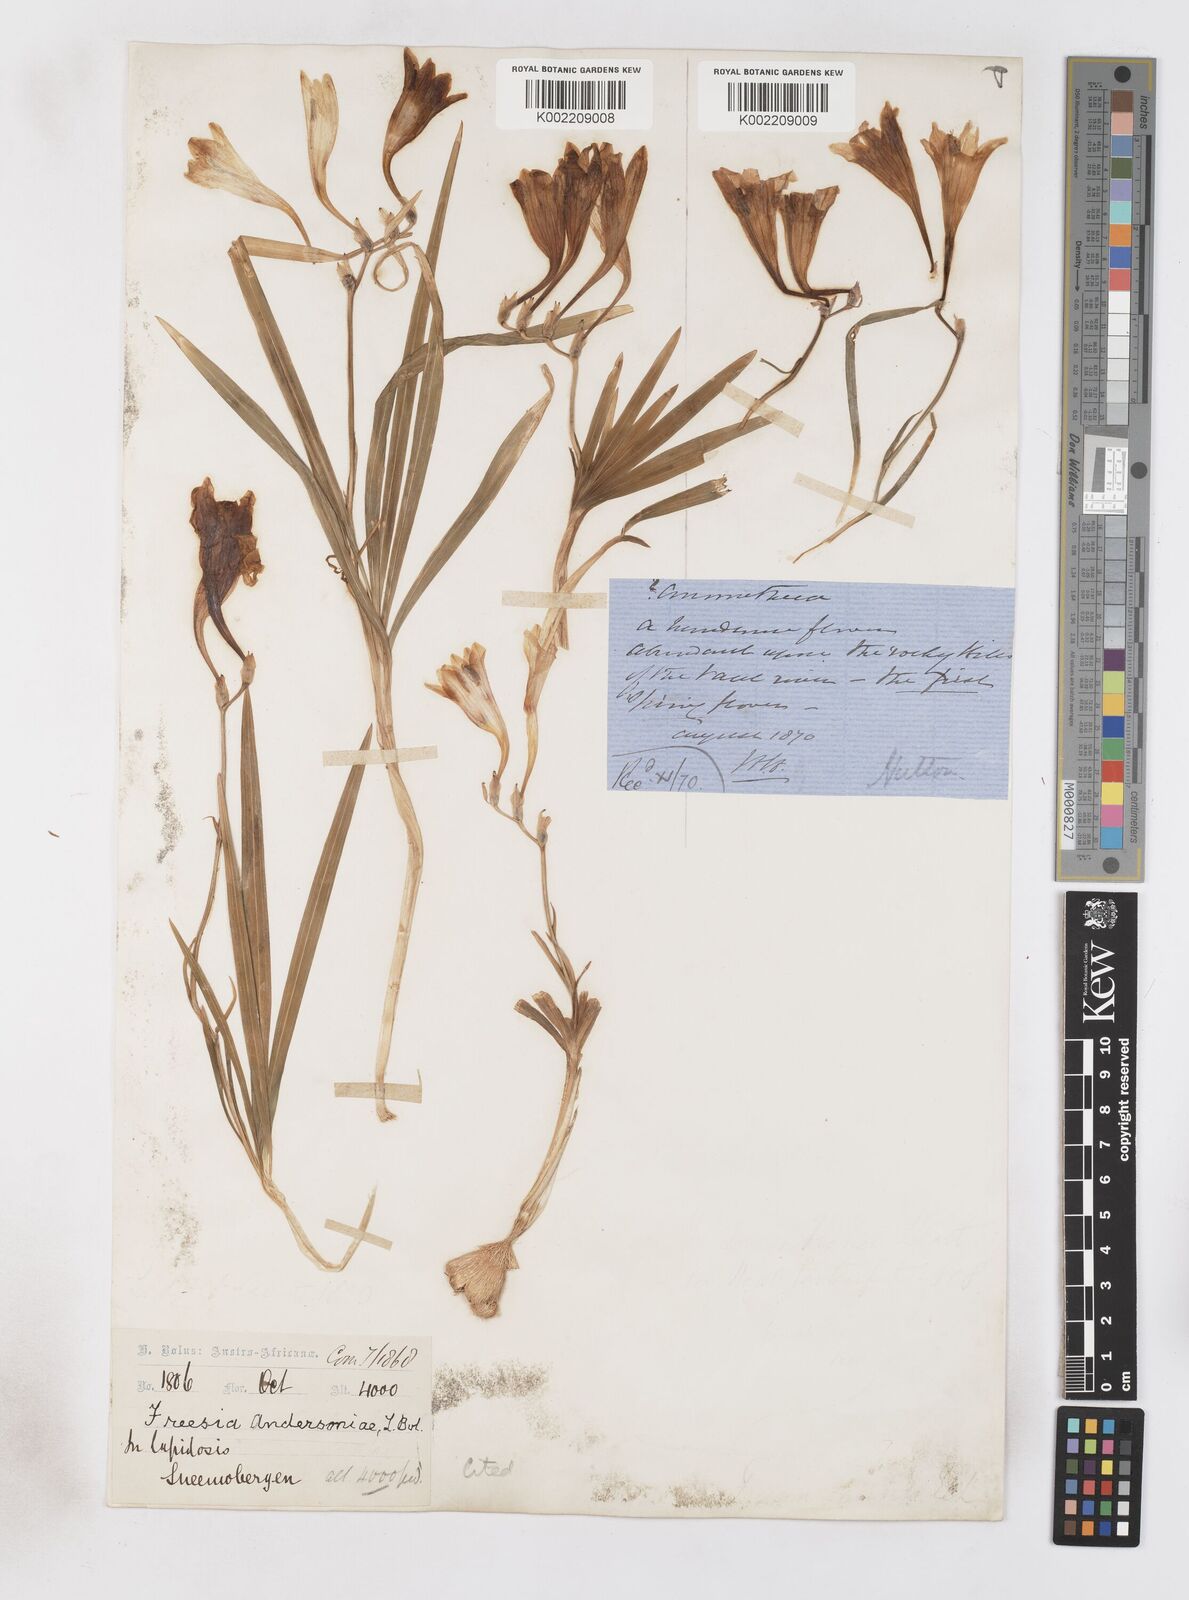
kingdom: Plantae
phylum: Tracheophyta
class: Liliopsida
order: Asparagales
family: Iridaceae
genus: Freesia
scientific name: Freesia andersoniae
